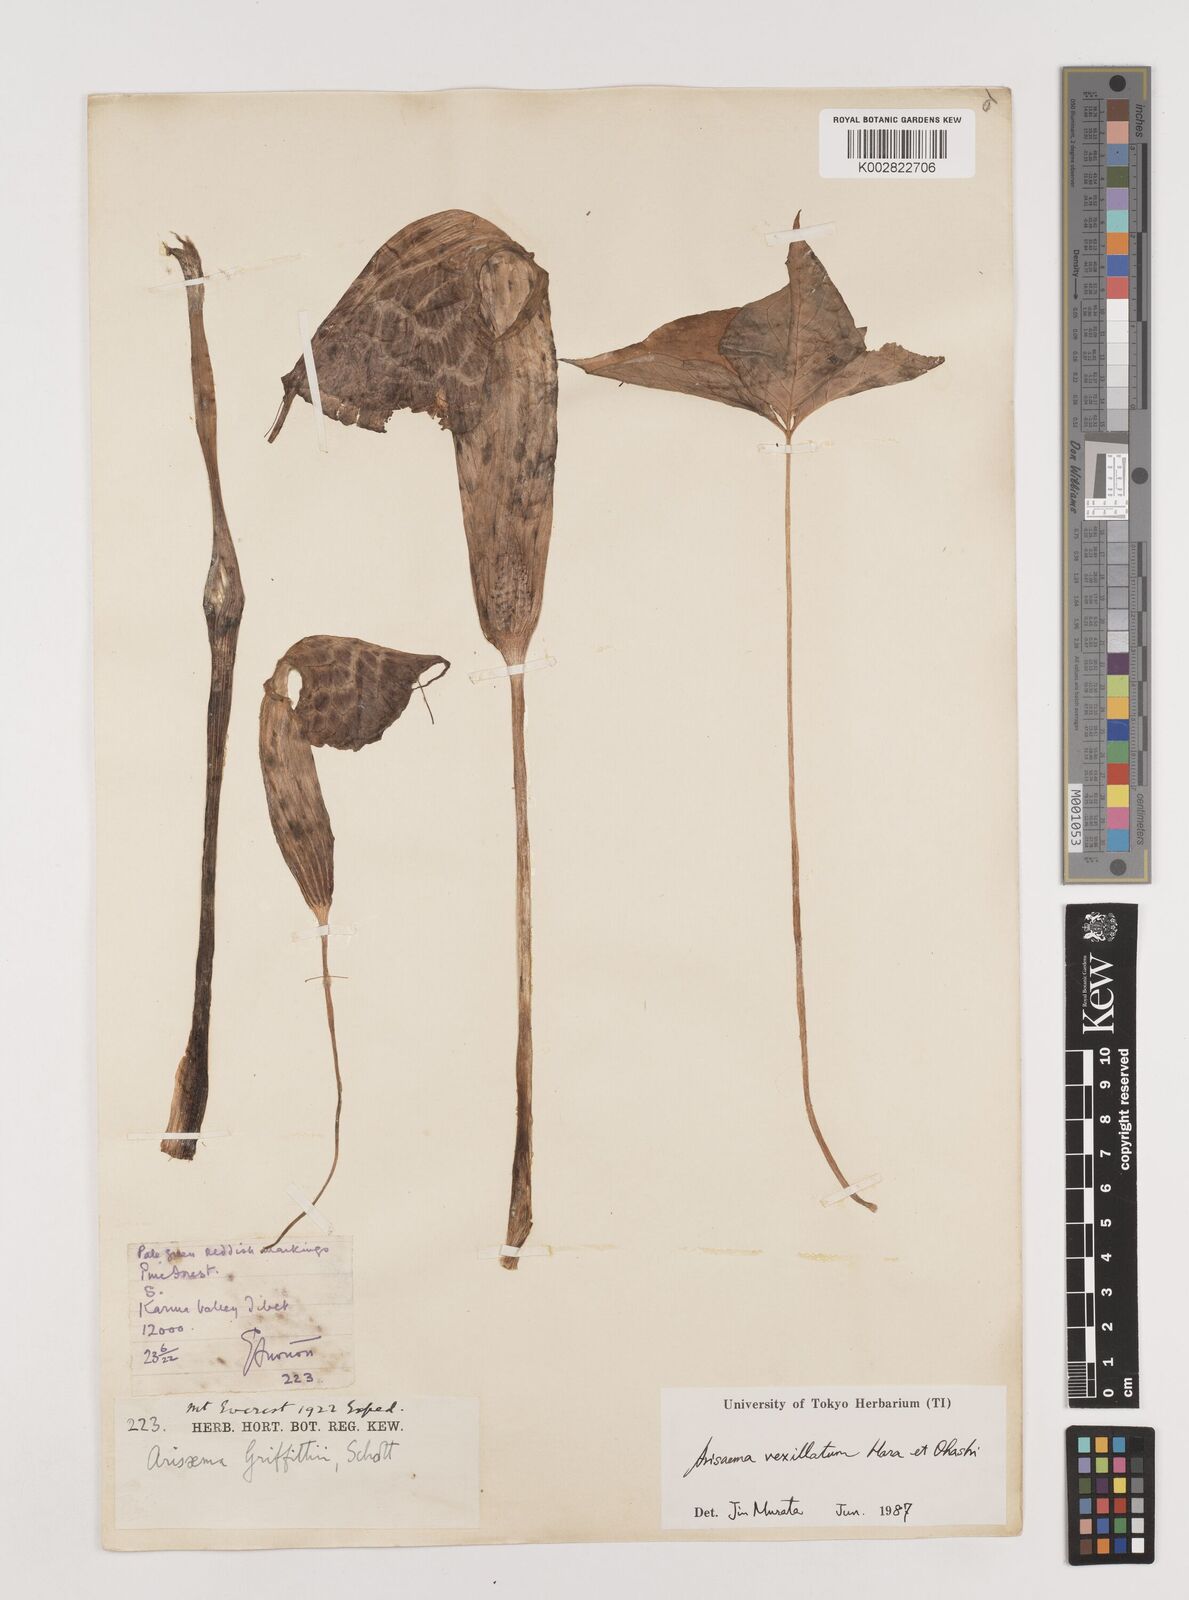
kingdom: Plantae
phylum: Tracheophyta
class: Liliopsida
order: Alismatales
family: Araceae
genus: Arisaema
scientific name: Arisaema vexillatum
